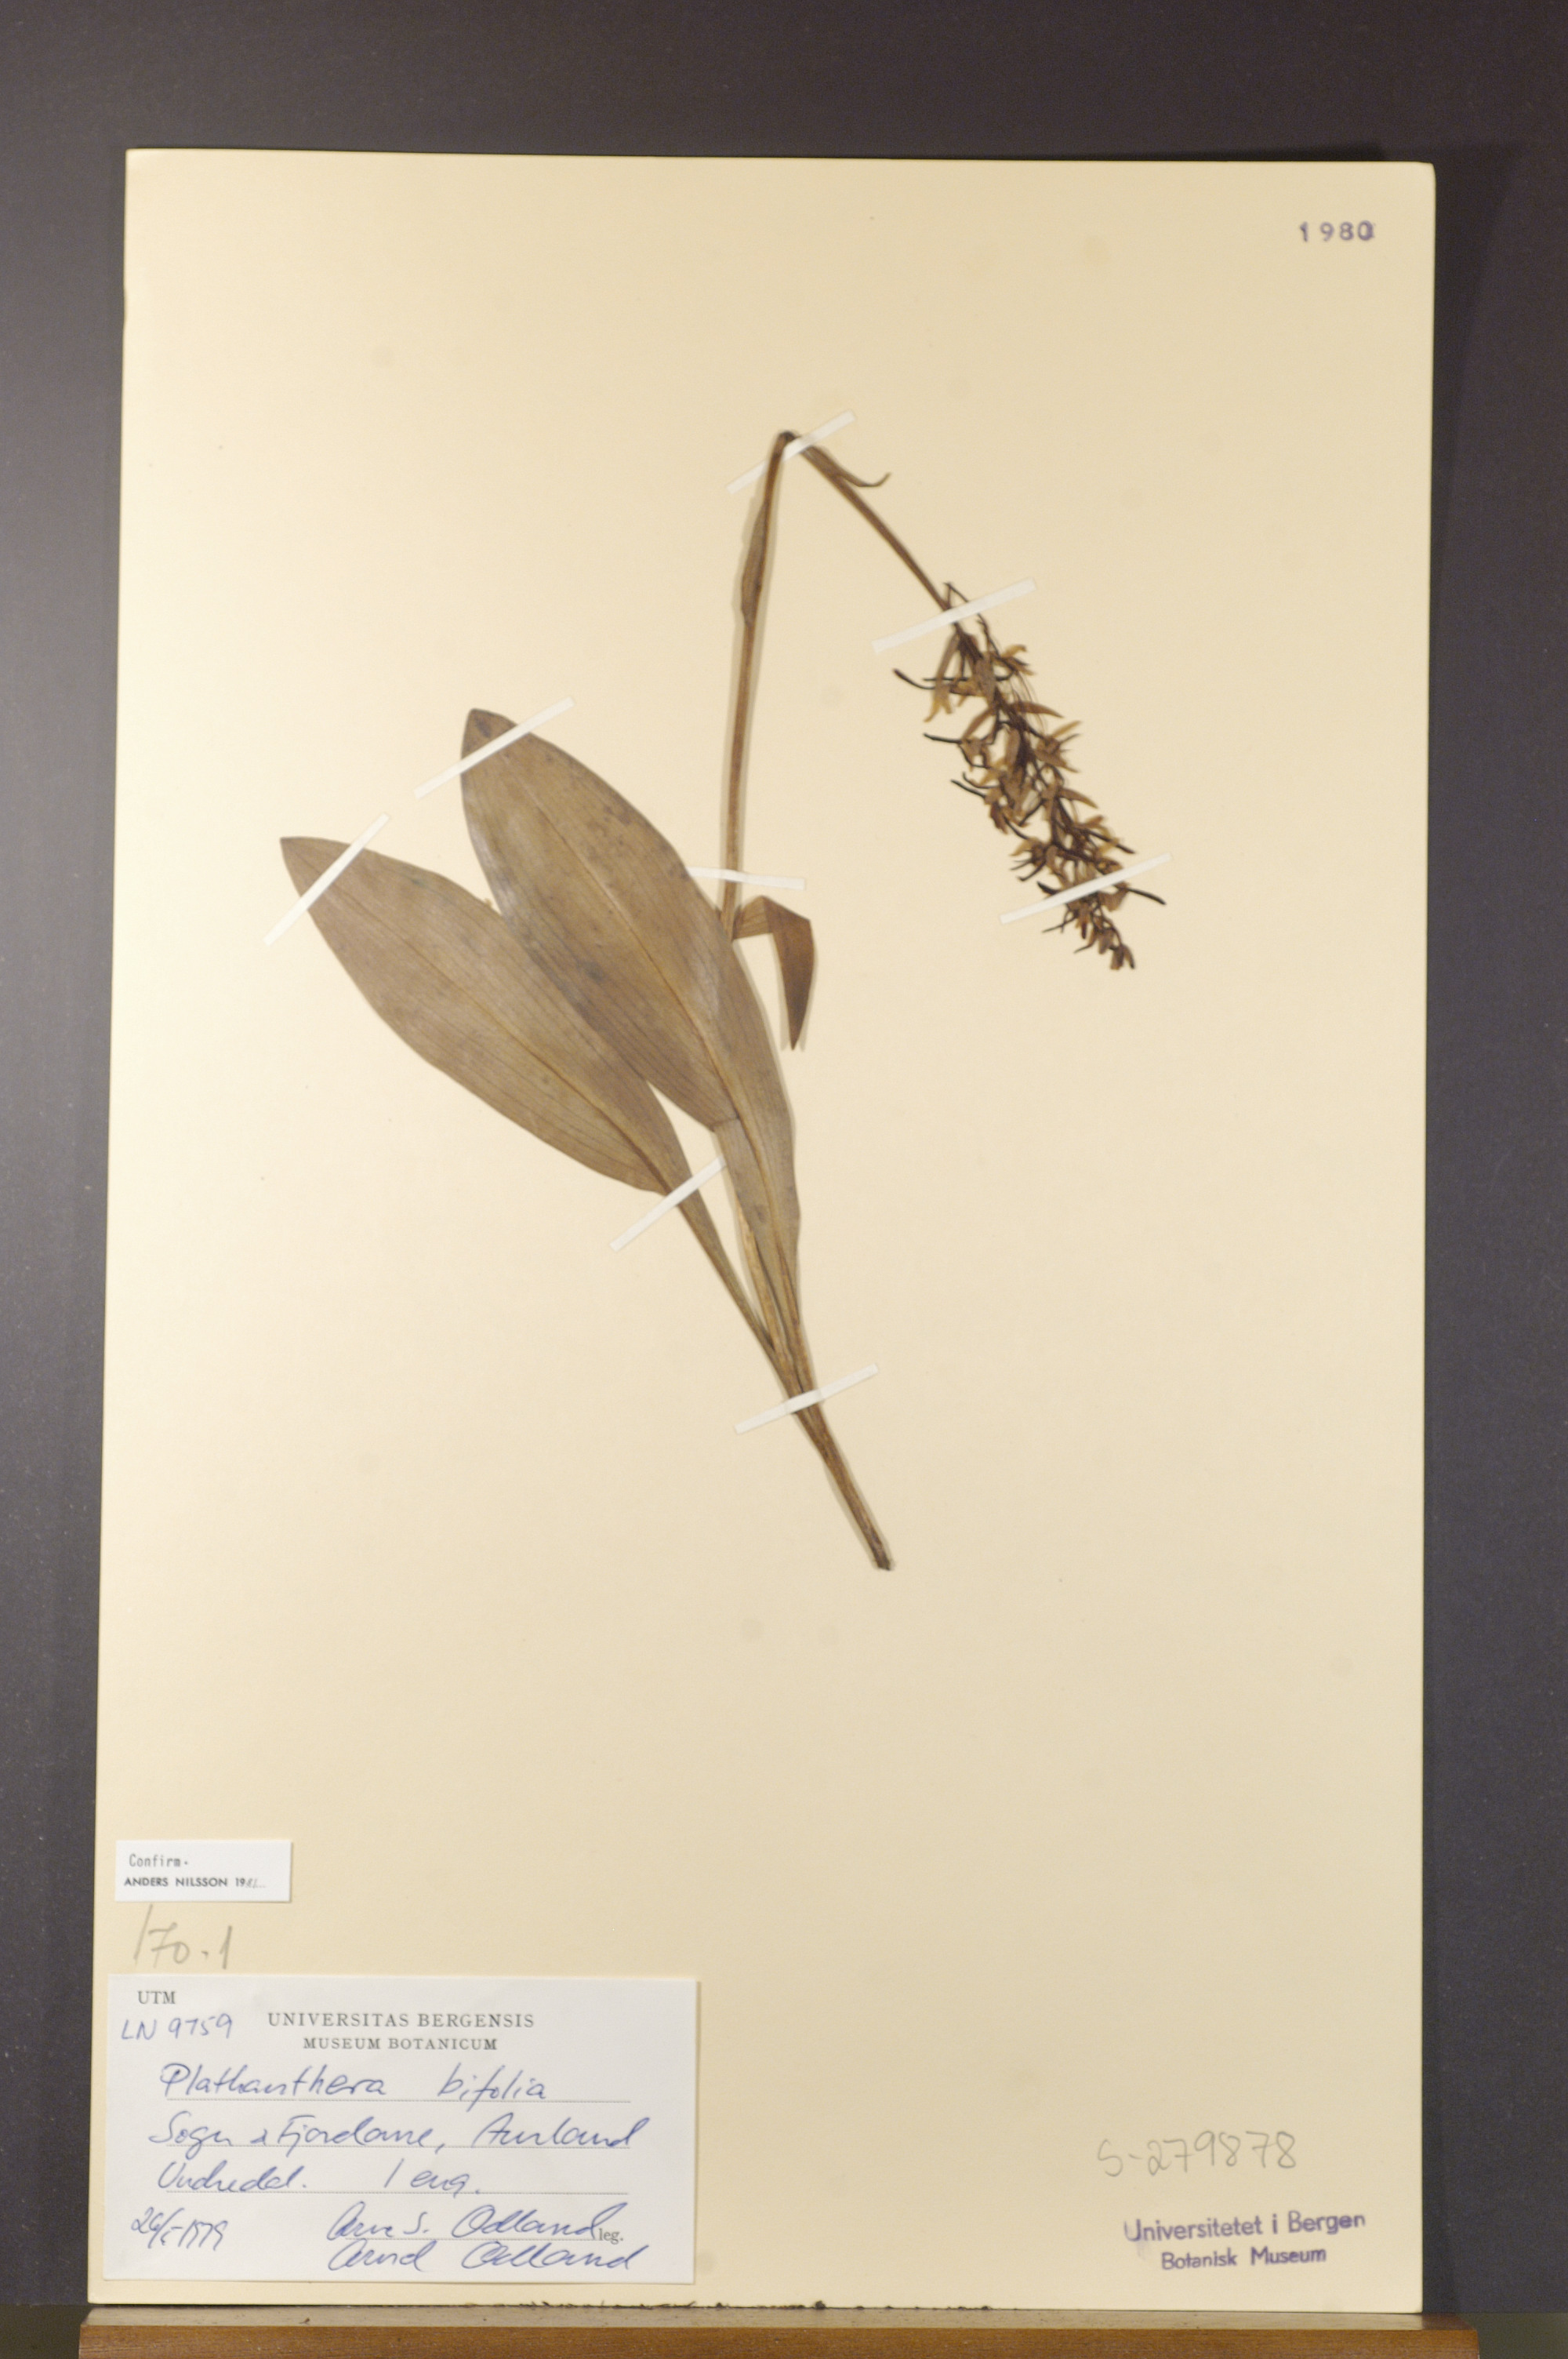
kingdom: Plantae
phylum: Tracheophyta
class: Liliopsida
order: Asparagales
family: Orchidaceae
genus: Platanthera
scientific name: Platanthera bifolia
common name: Lesser butterfly-orchid
